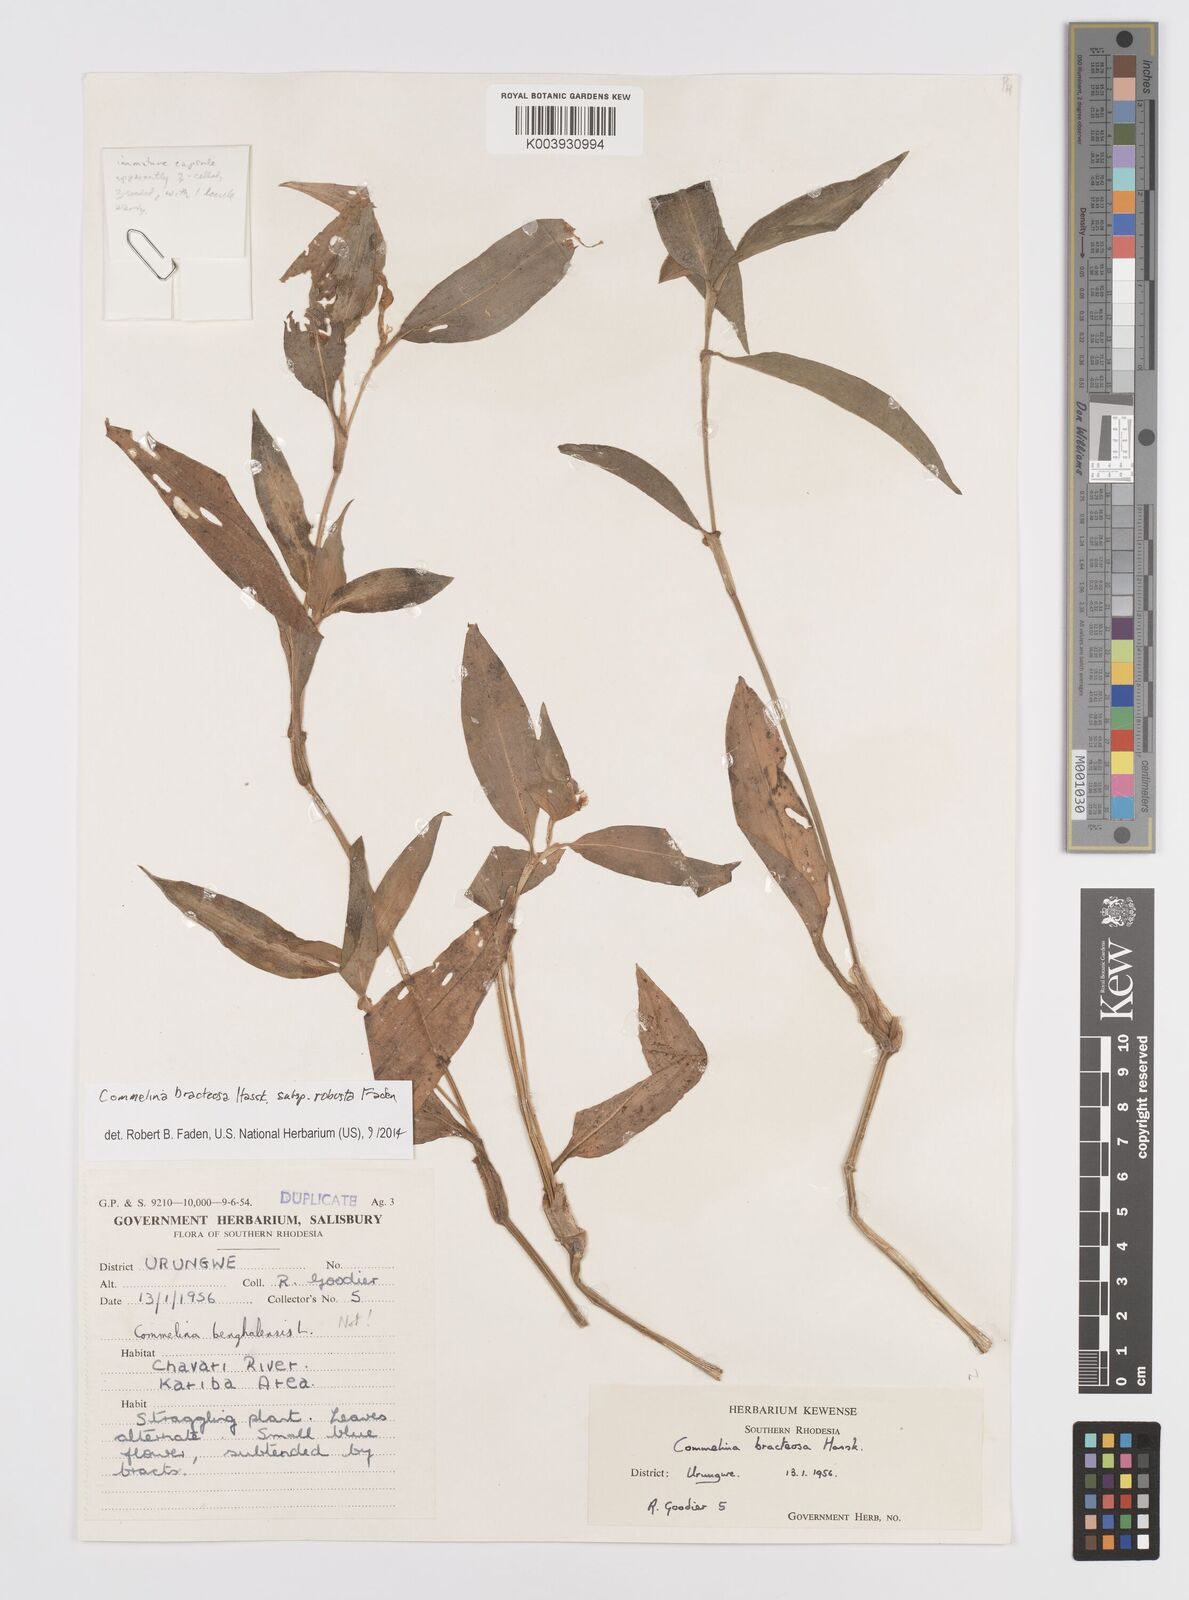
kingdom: Plantae
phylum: Tracheophyta
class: Liliopsida
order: Commelinales
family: Commelinaceae
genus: Commelina
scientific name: Commelina bracteosa
